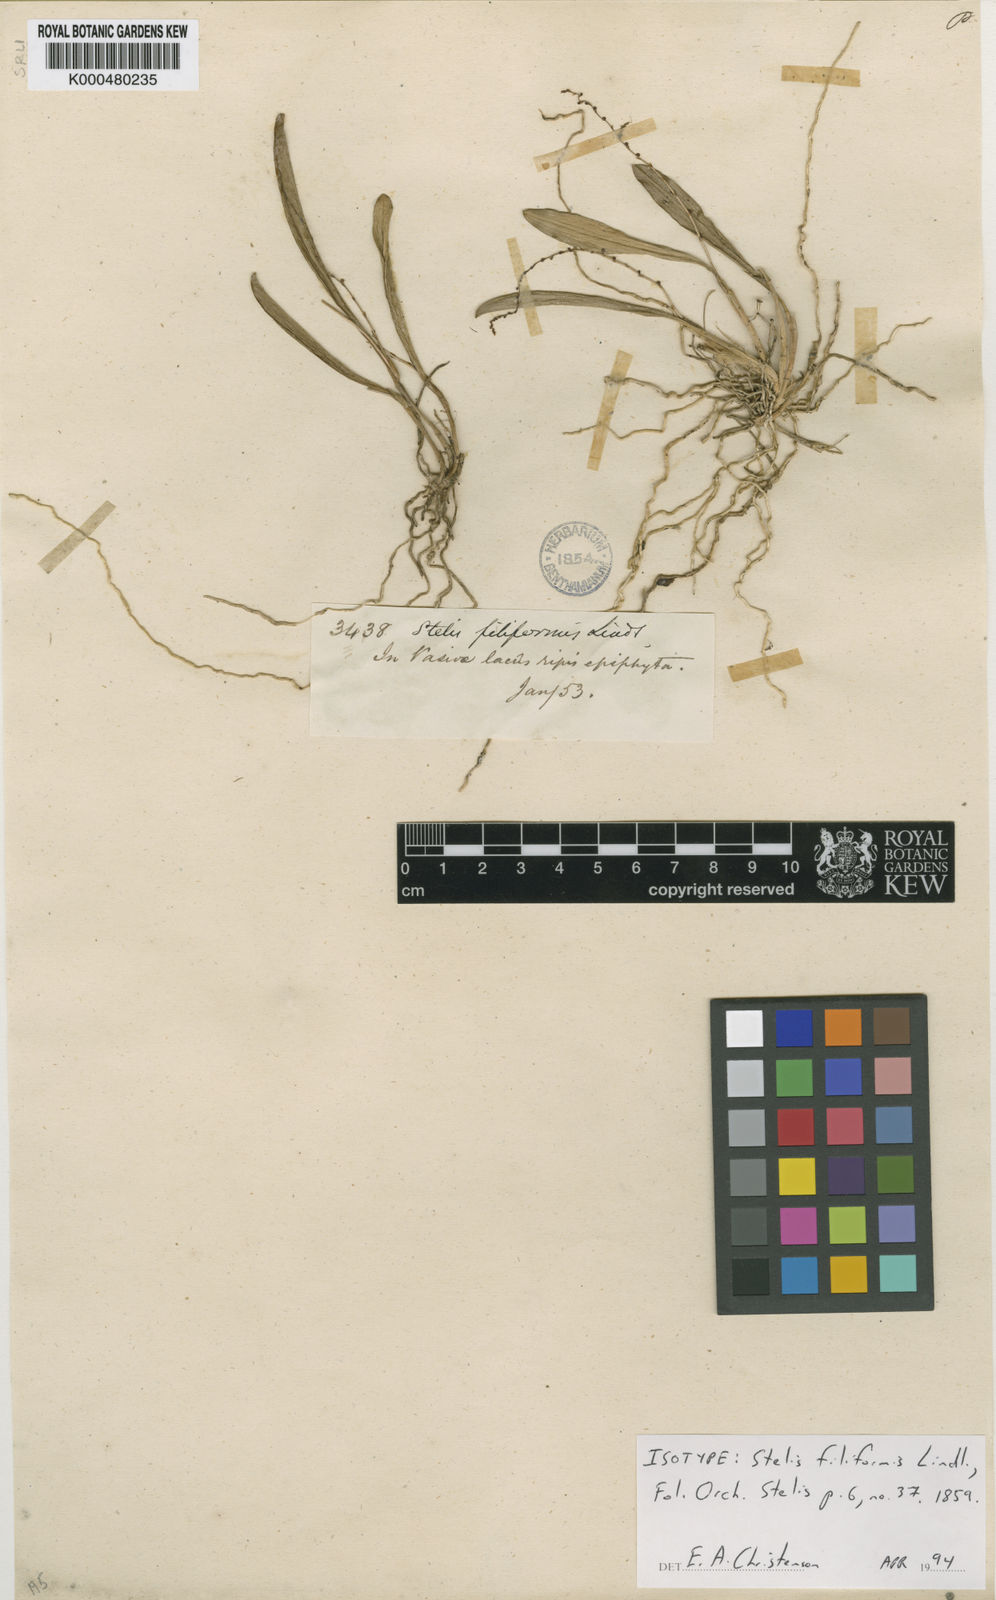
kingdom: Plantae
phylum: Tracheophyta
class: Liliopsida
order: Asparagales
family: Orchidaceae
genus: Stelis
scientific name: Stelis filiformis
